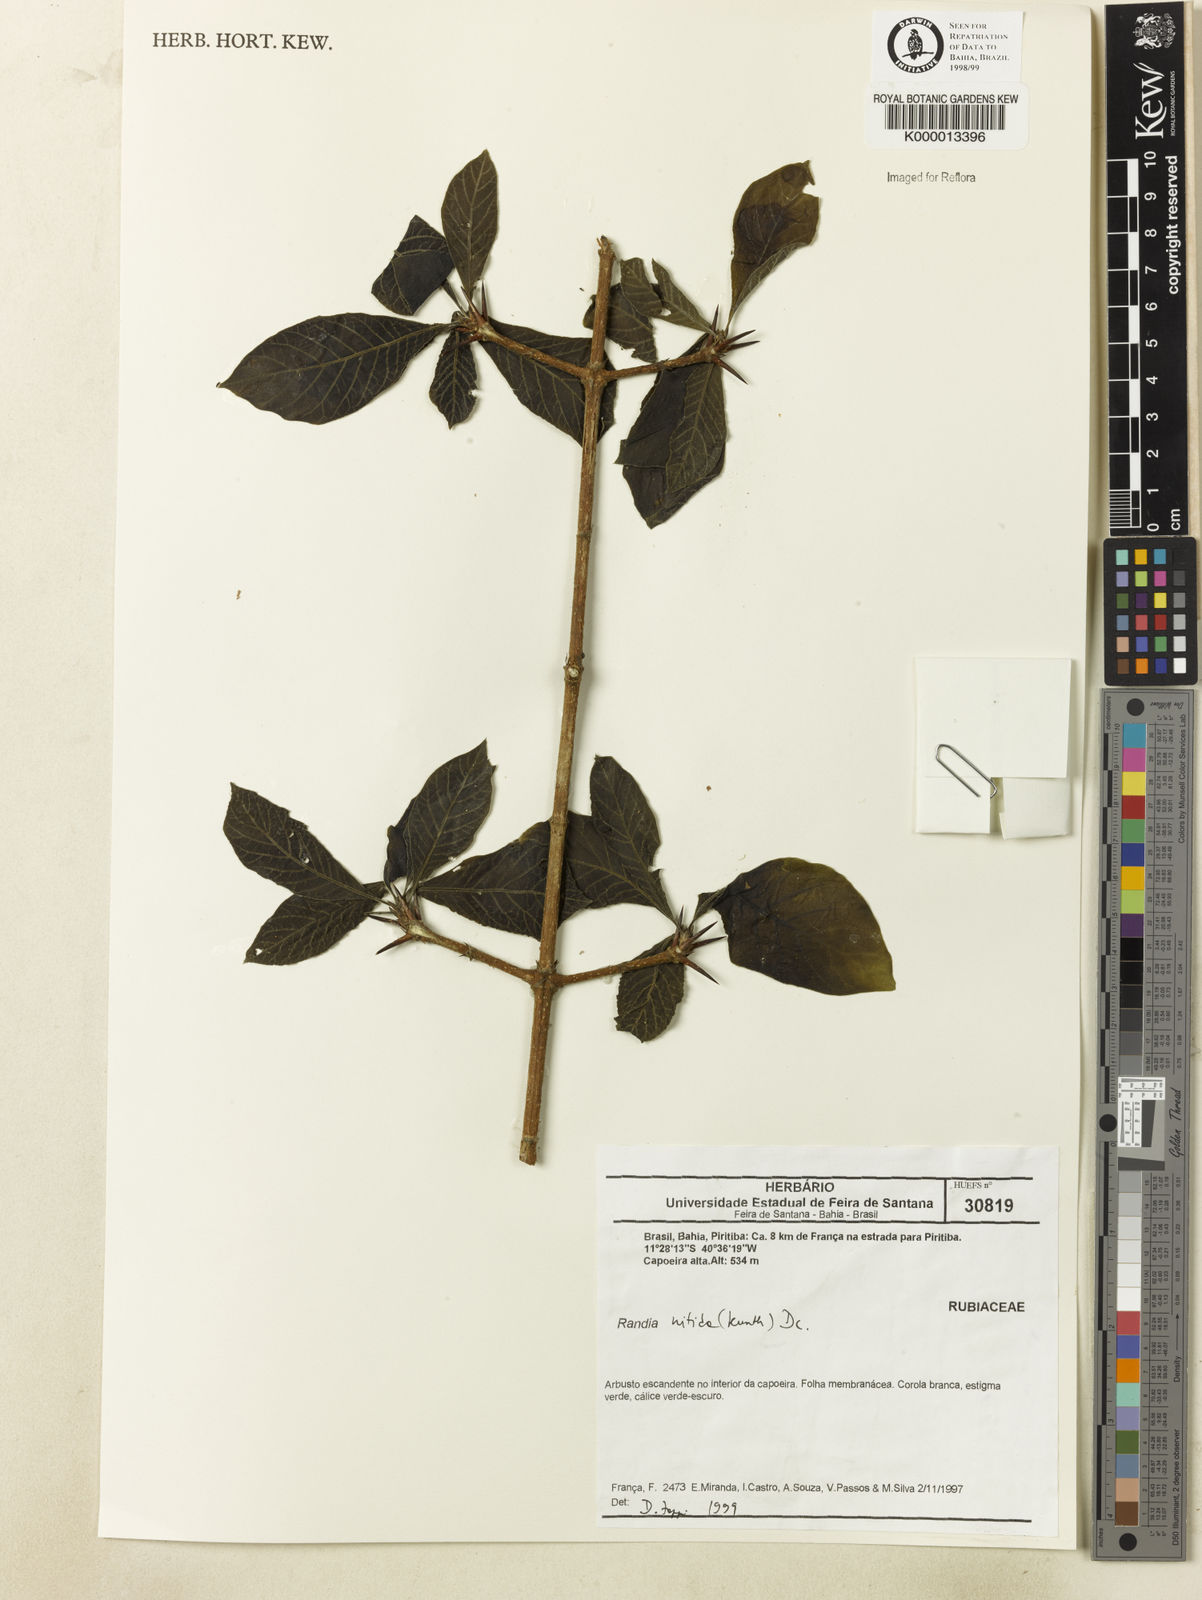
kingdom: Plantae
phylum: Tracheophyta
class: Magnoliopsida
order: Gentianales
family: Rubiaceae
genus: Randia
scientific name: Randia nitida
